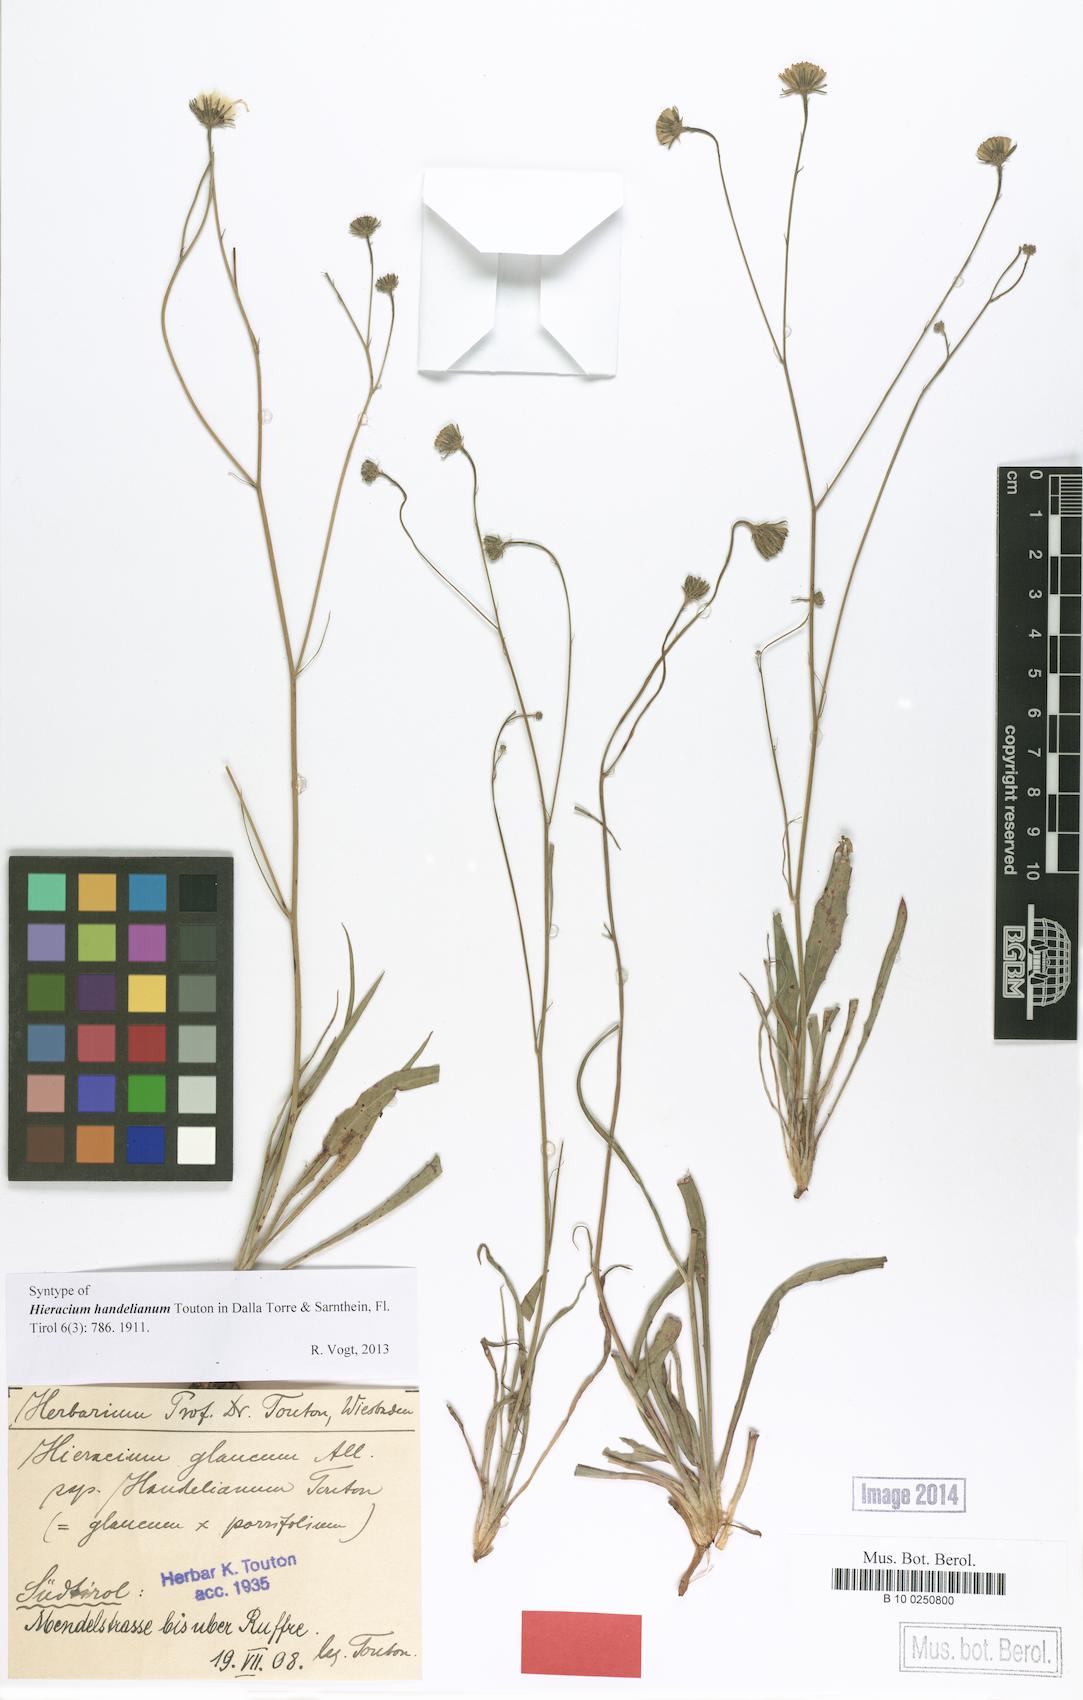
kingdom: Plantae
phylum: Tracheophyta
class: Magnoliopsida
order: Asterales
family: Asteraceae
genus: Hieracium
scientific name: Hieracium handelianum
